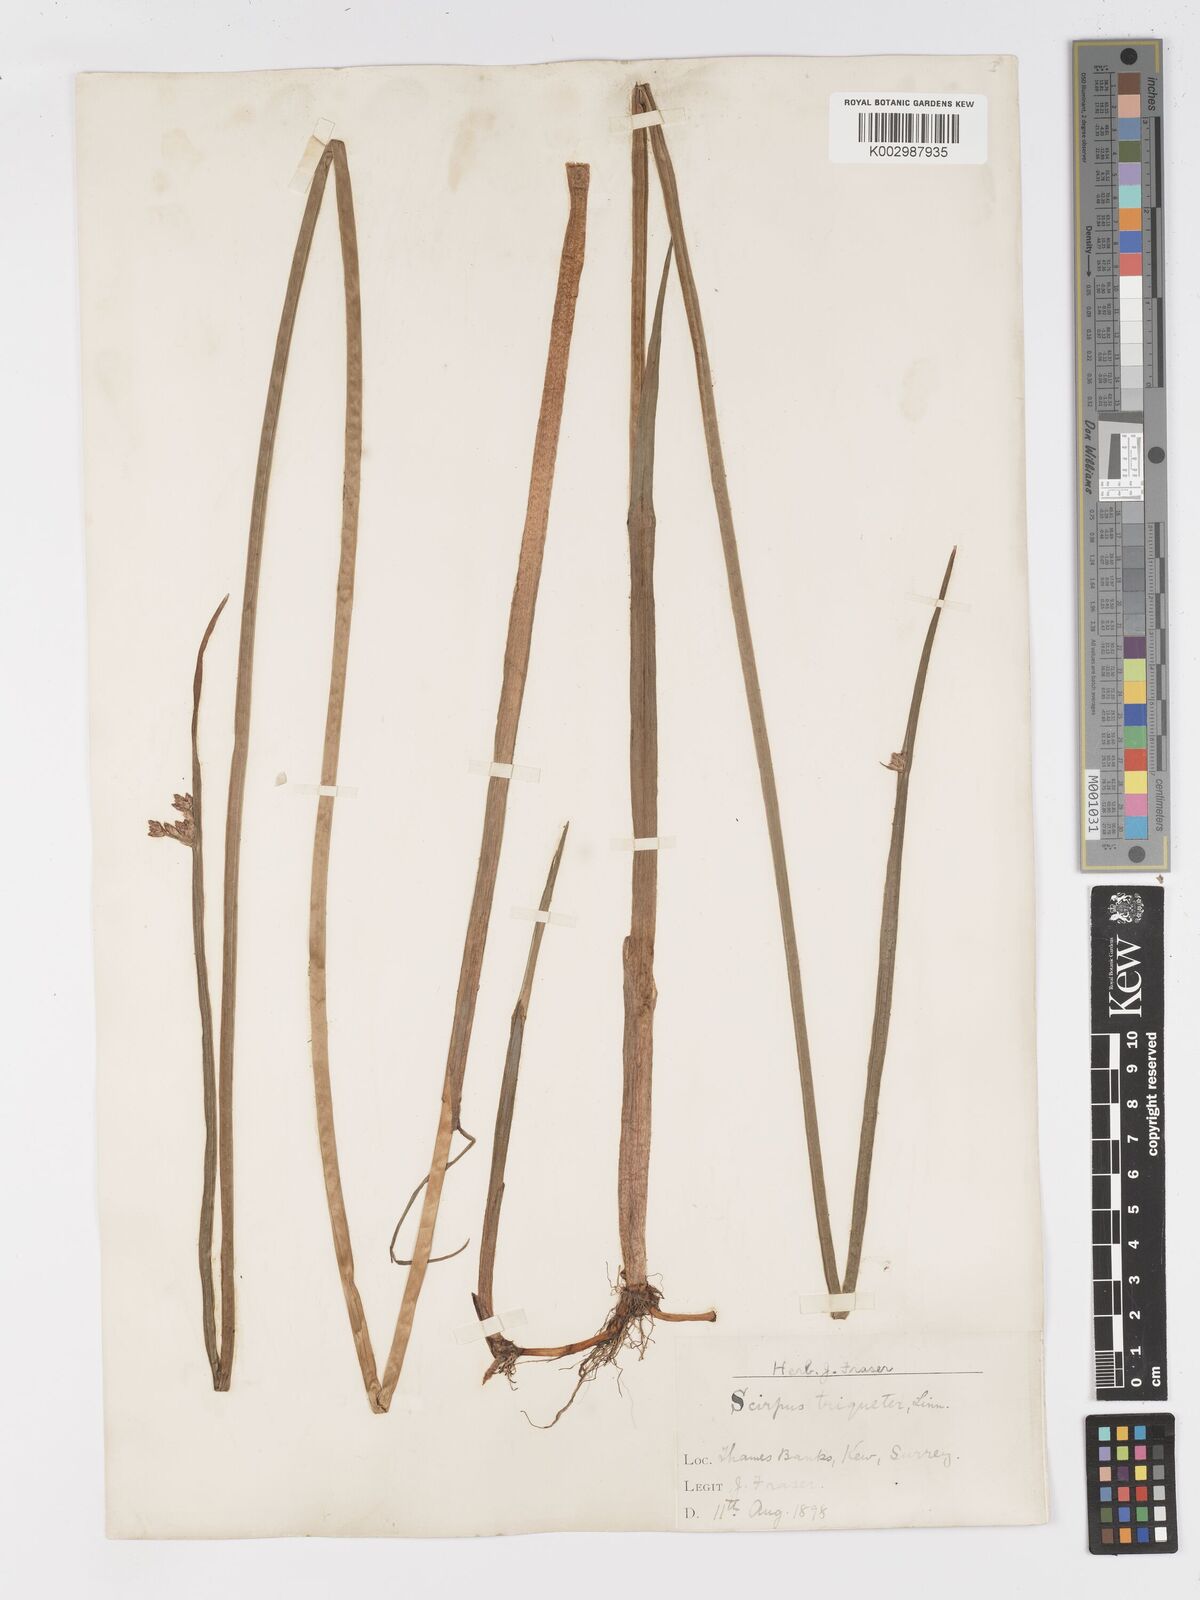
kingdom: Plantae
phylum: Tracheophyta
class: Liliopsida
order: Poales
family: Cyperaceae
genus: Schoenoplectus
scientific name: Schoenoplectus triqueter
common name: Triangular club-rush
